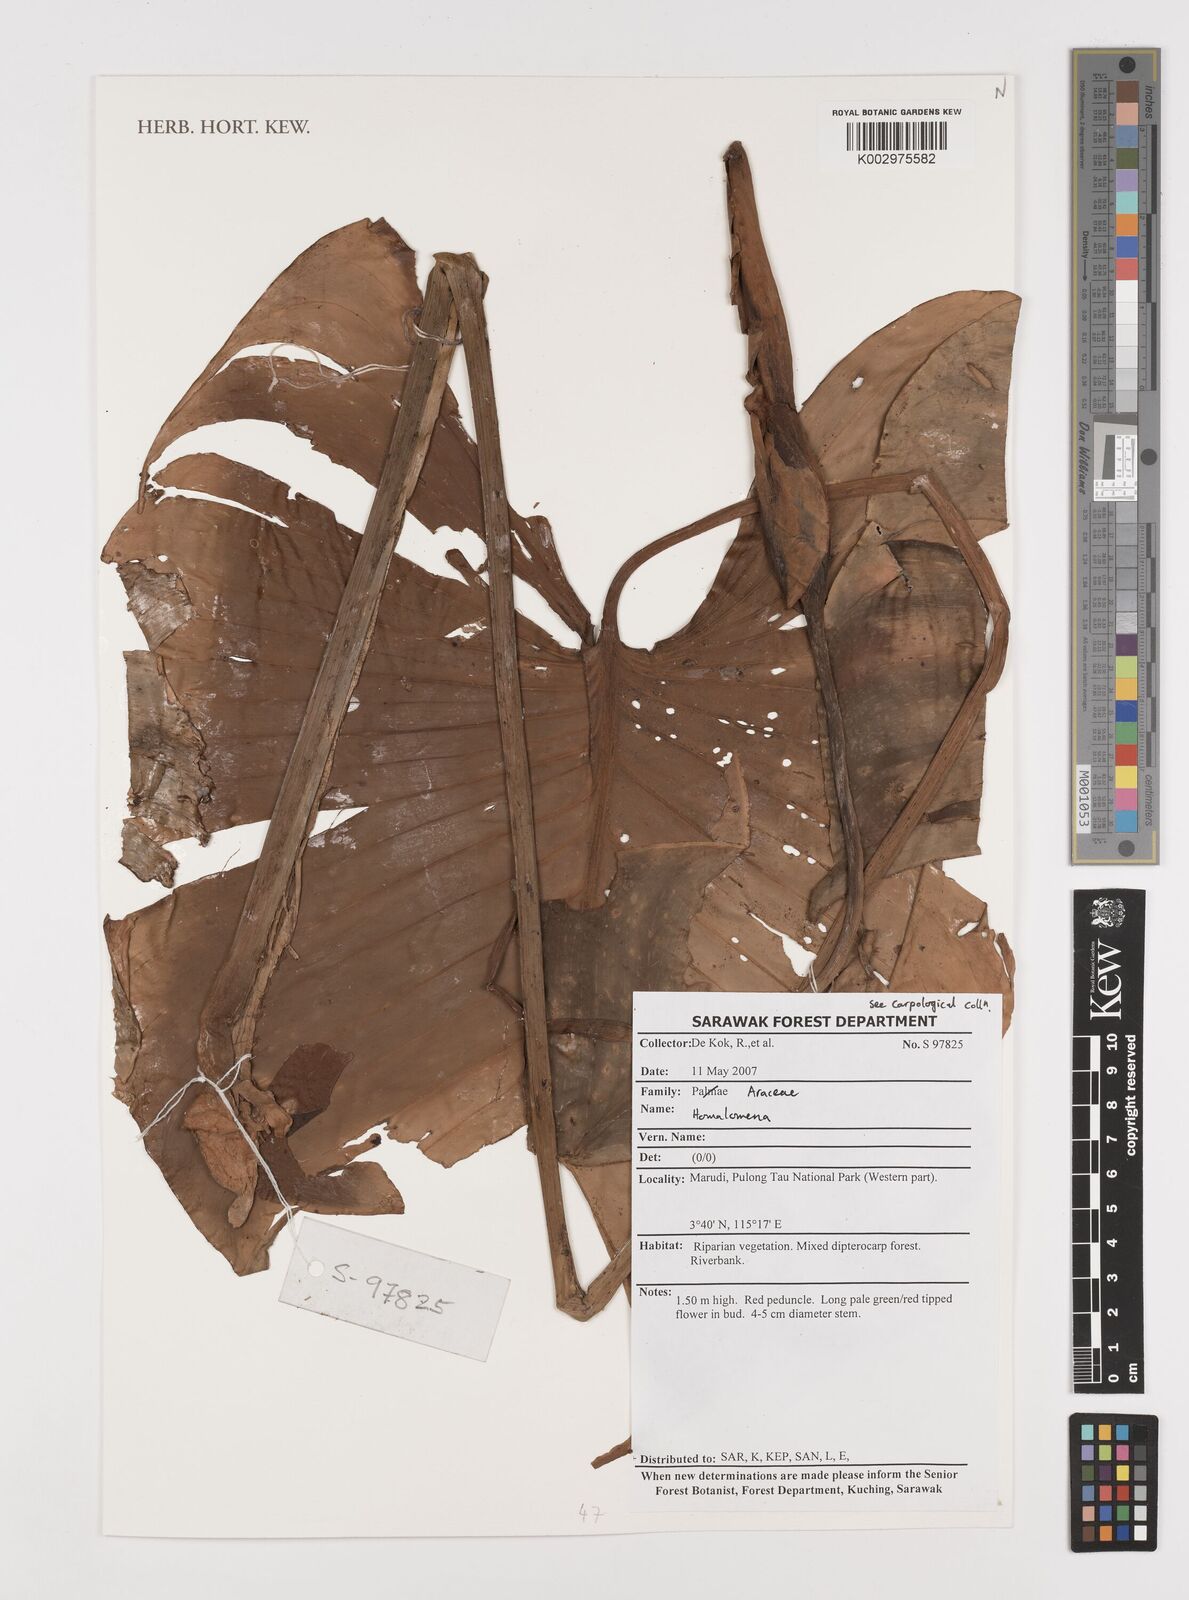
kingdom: Plantae
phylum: Tracheophyta
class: Liliopsida
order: Alismatales
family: Araceae
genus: Homalomena
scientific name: Homalomena
